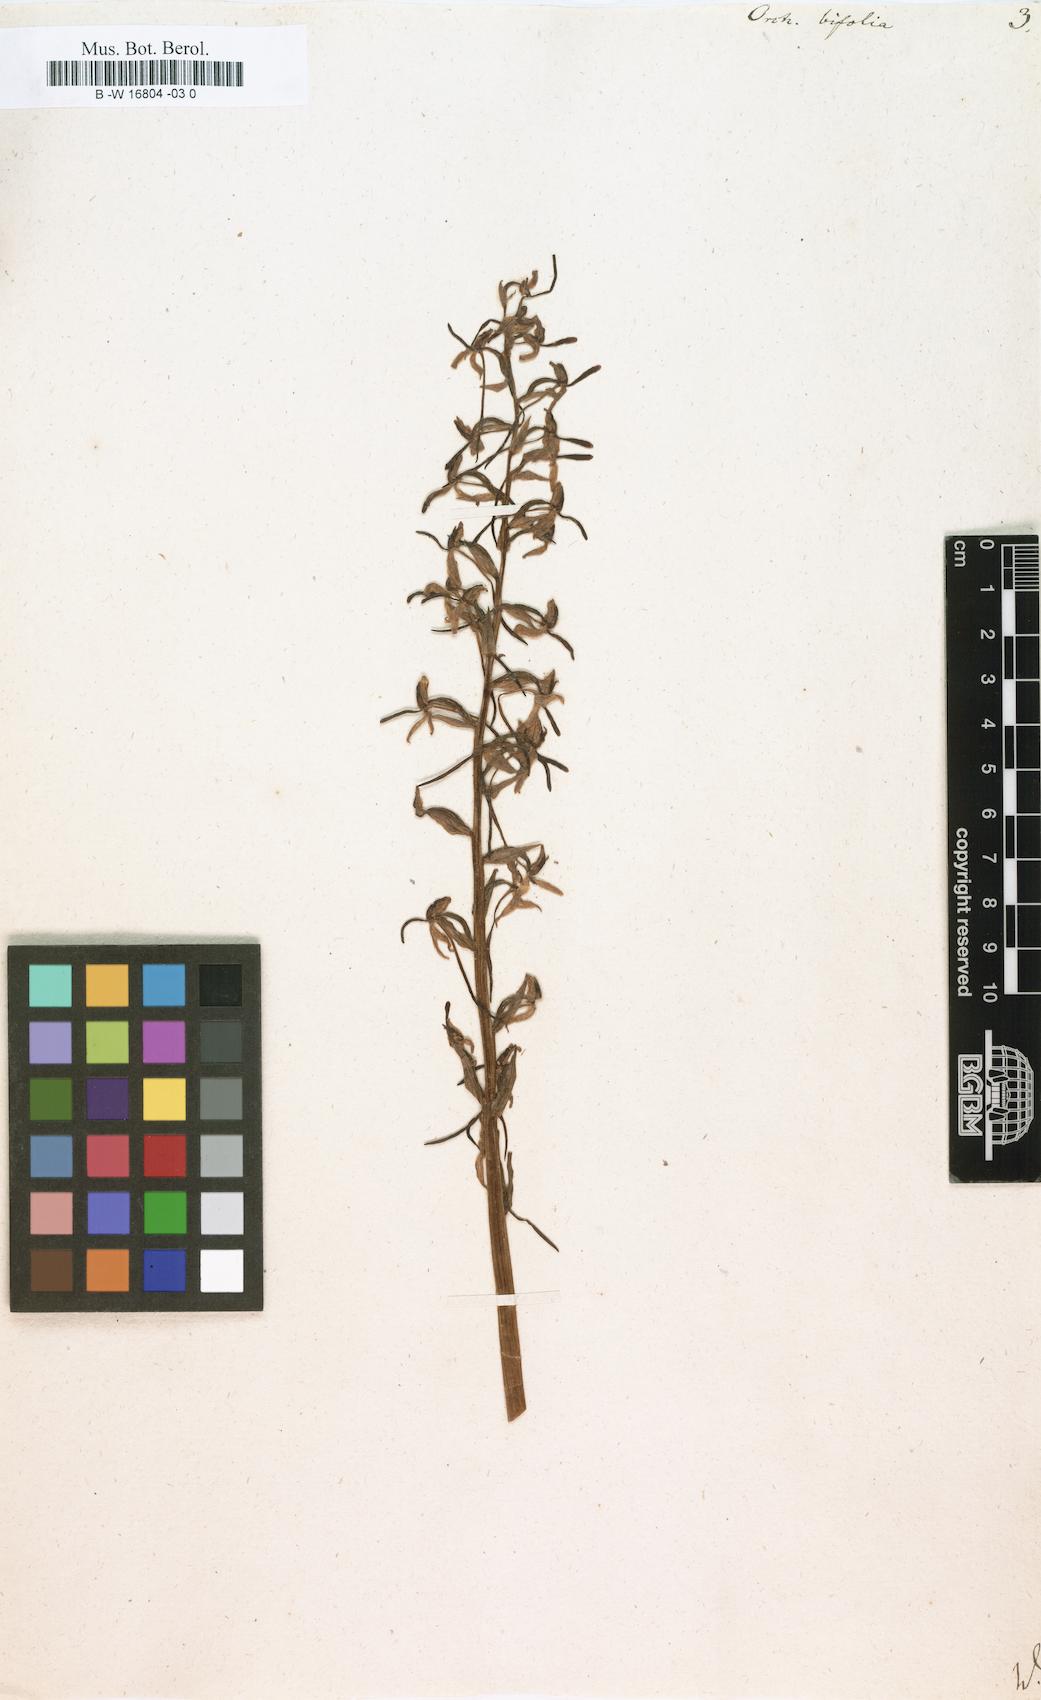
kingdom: Plantae
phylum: Tracheophyta
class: Liliopsida
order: Asparagales
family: Orchidaceae
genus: Platanthera
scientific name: Platanthera bifolia
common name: Lesser butterfly-orchid
